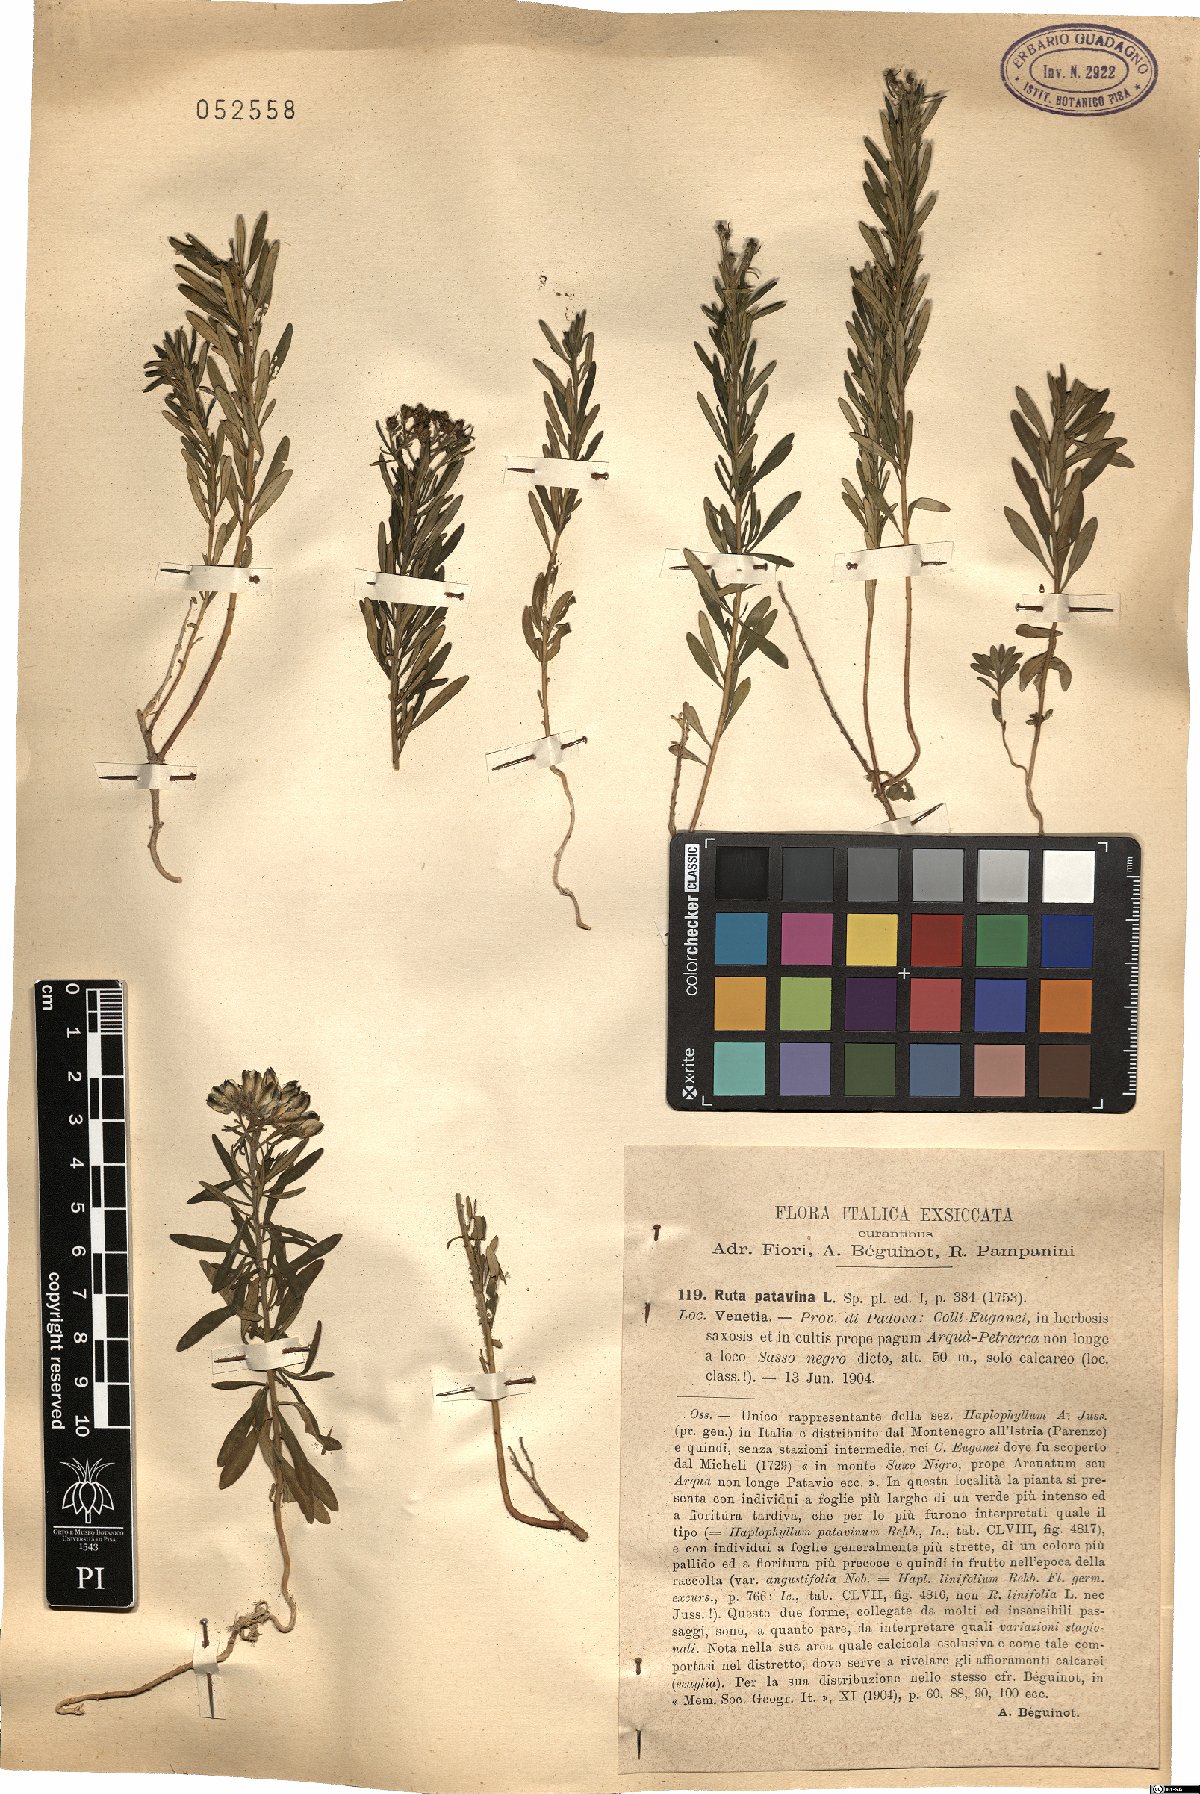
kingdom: Plantae
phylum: Tracheophyta
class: Magnoliopsida
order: Sapindales
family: Rutaceae
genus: Haplophyllum
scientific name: Haplophyllum patavinum
